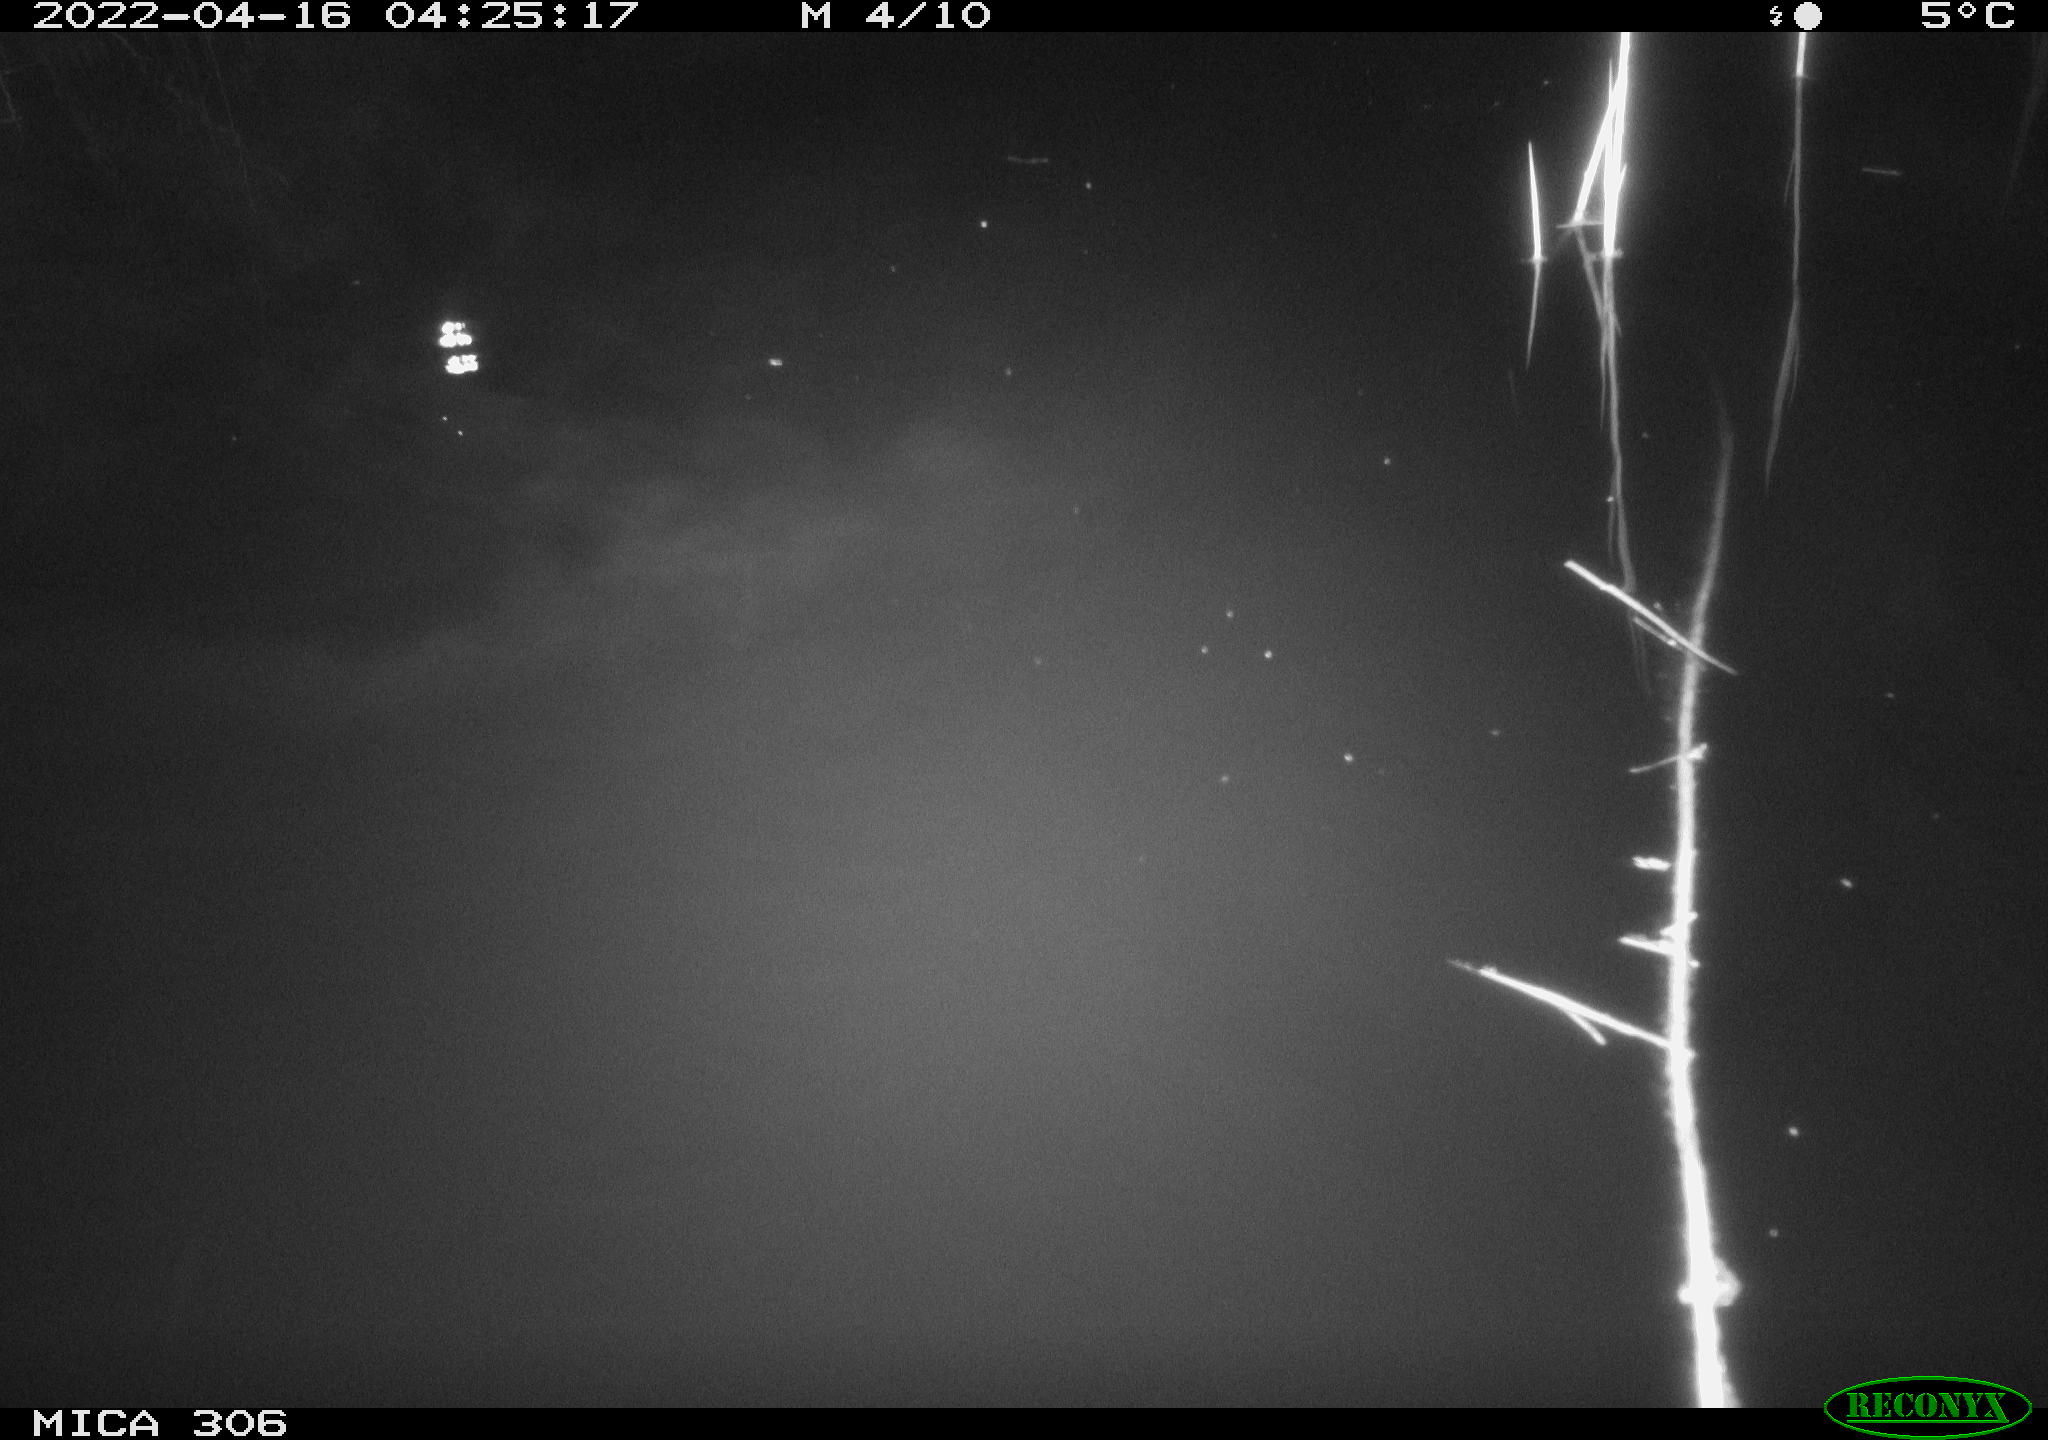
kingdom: Animalia
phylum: Chordata
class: Aves
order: Anseriformes
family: Anatidae
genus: Anas
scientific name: Anas platyrhynchos
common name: Mallard
